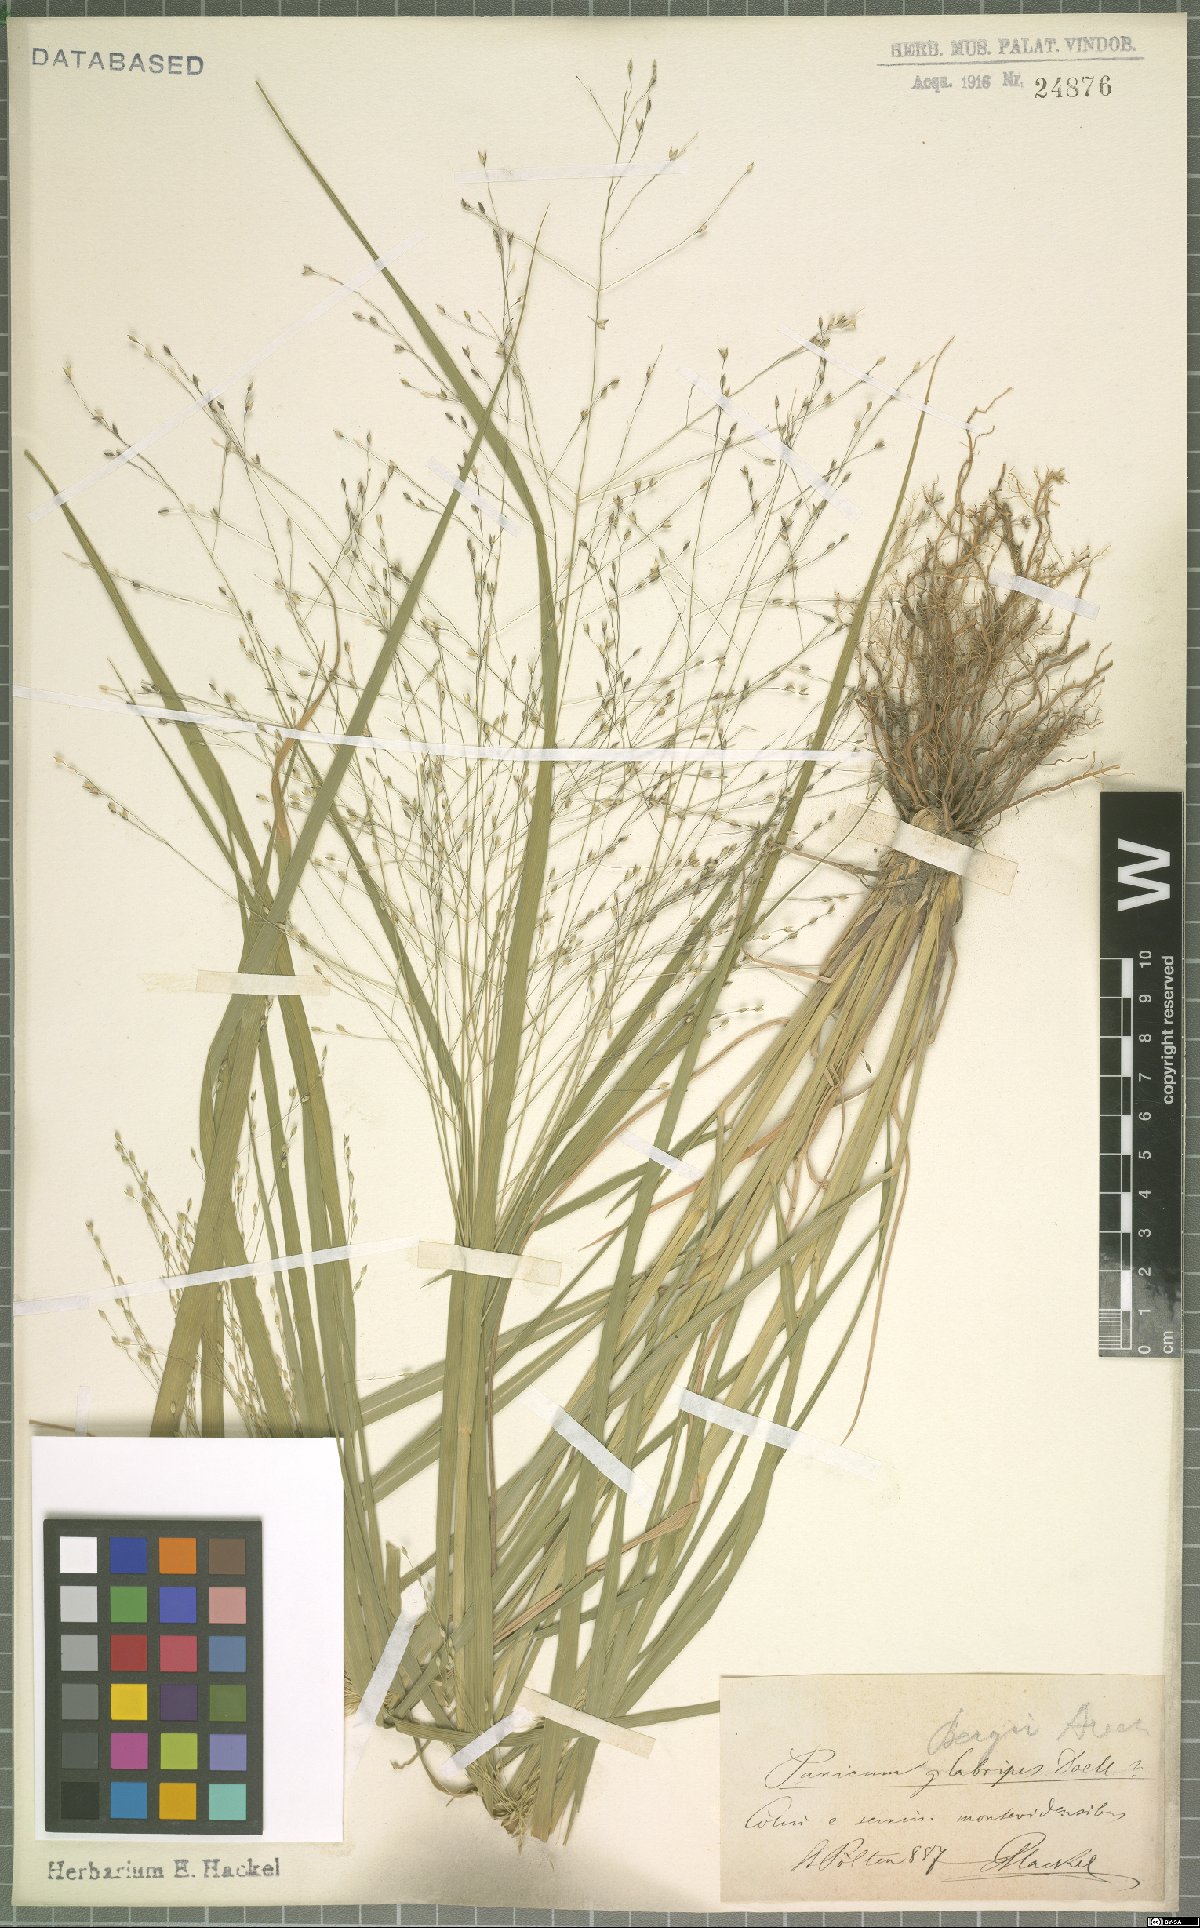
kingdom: Plantae
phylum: Tracheophyta
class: Liliopsida
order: Poales
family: Poaceae
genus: Panicum
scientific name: Panicum bergii
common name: Berg's panicgrass
